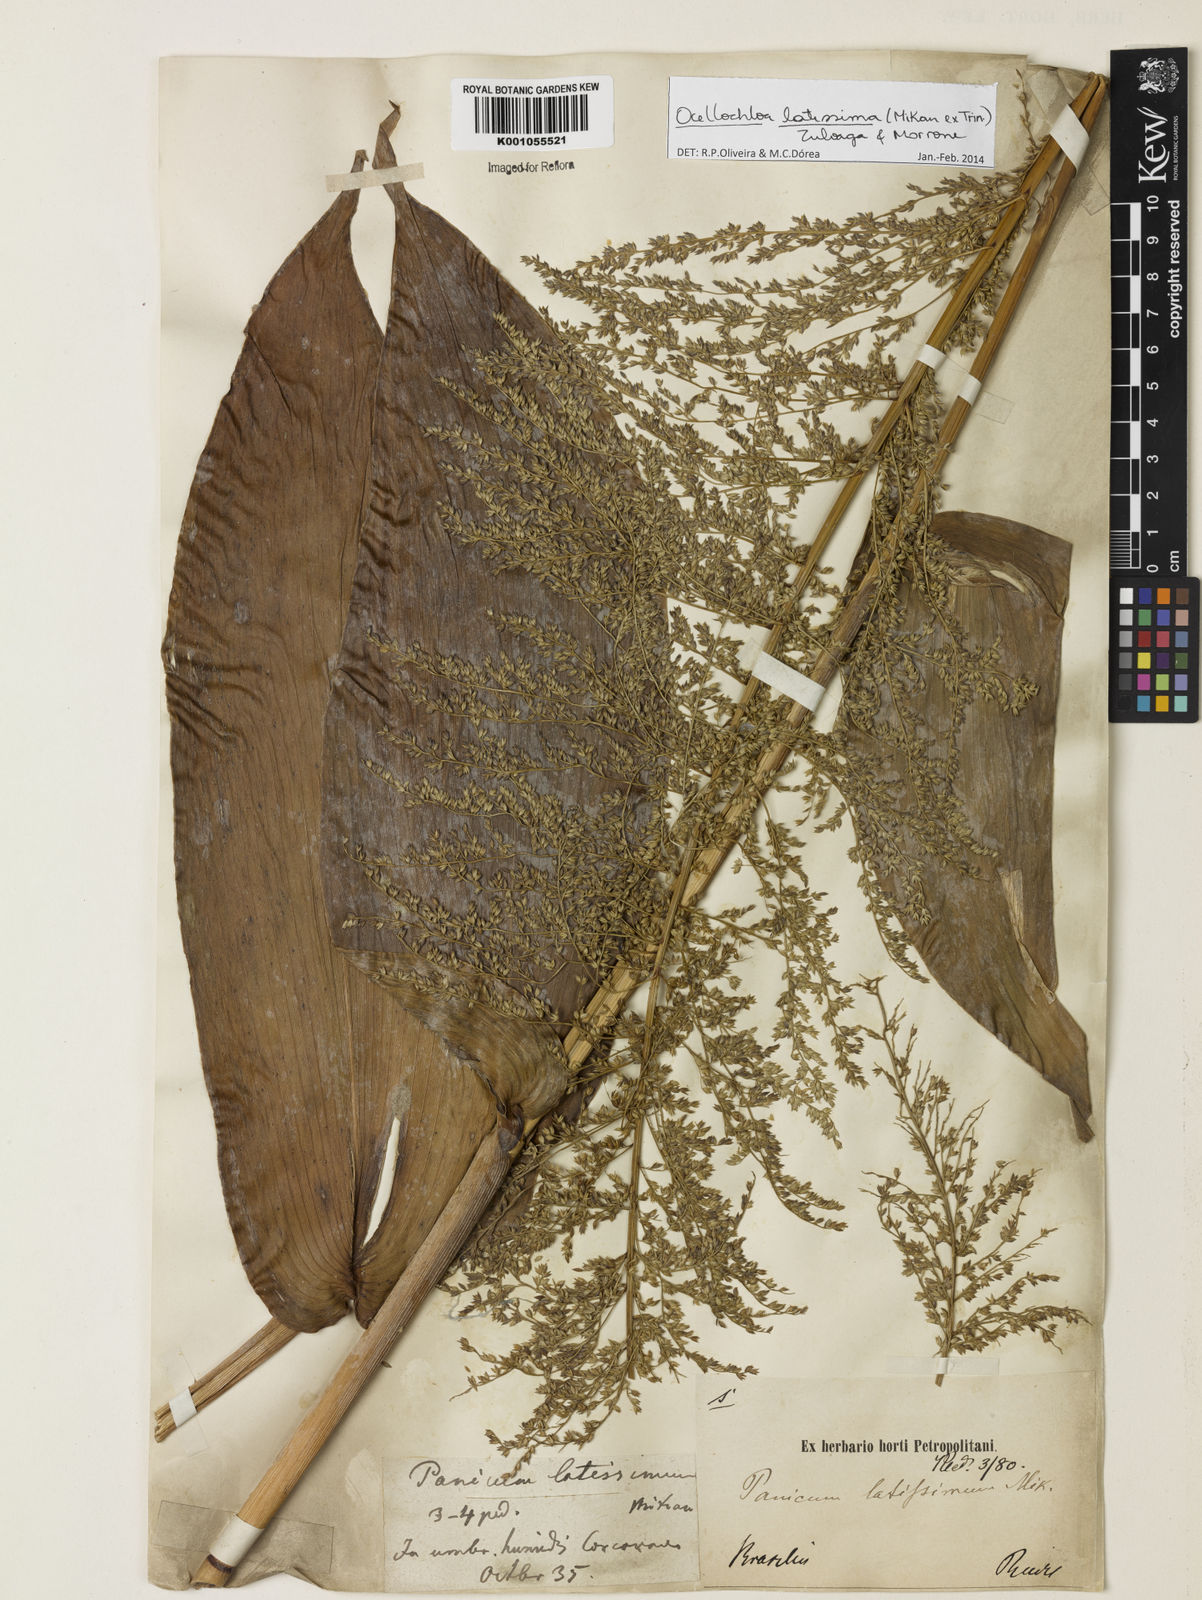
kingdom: Plantae
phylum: Tracheophyta
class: Liliopsida
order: Poales
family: Poaceae
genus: Ocellochloa
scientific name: Ocellochloa latissima
